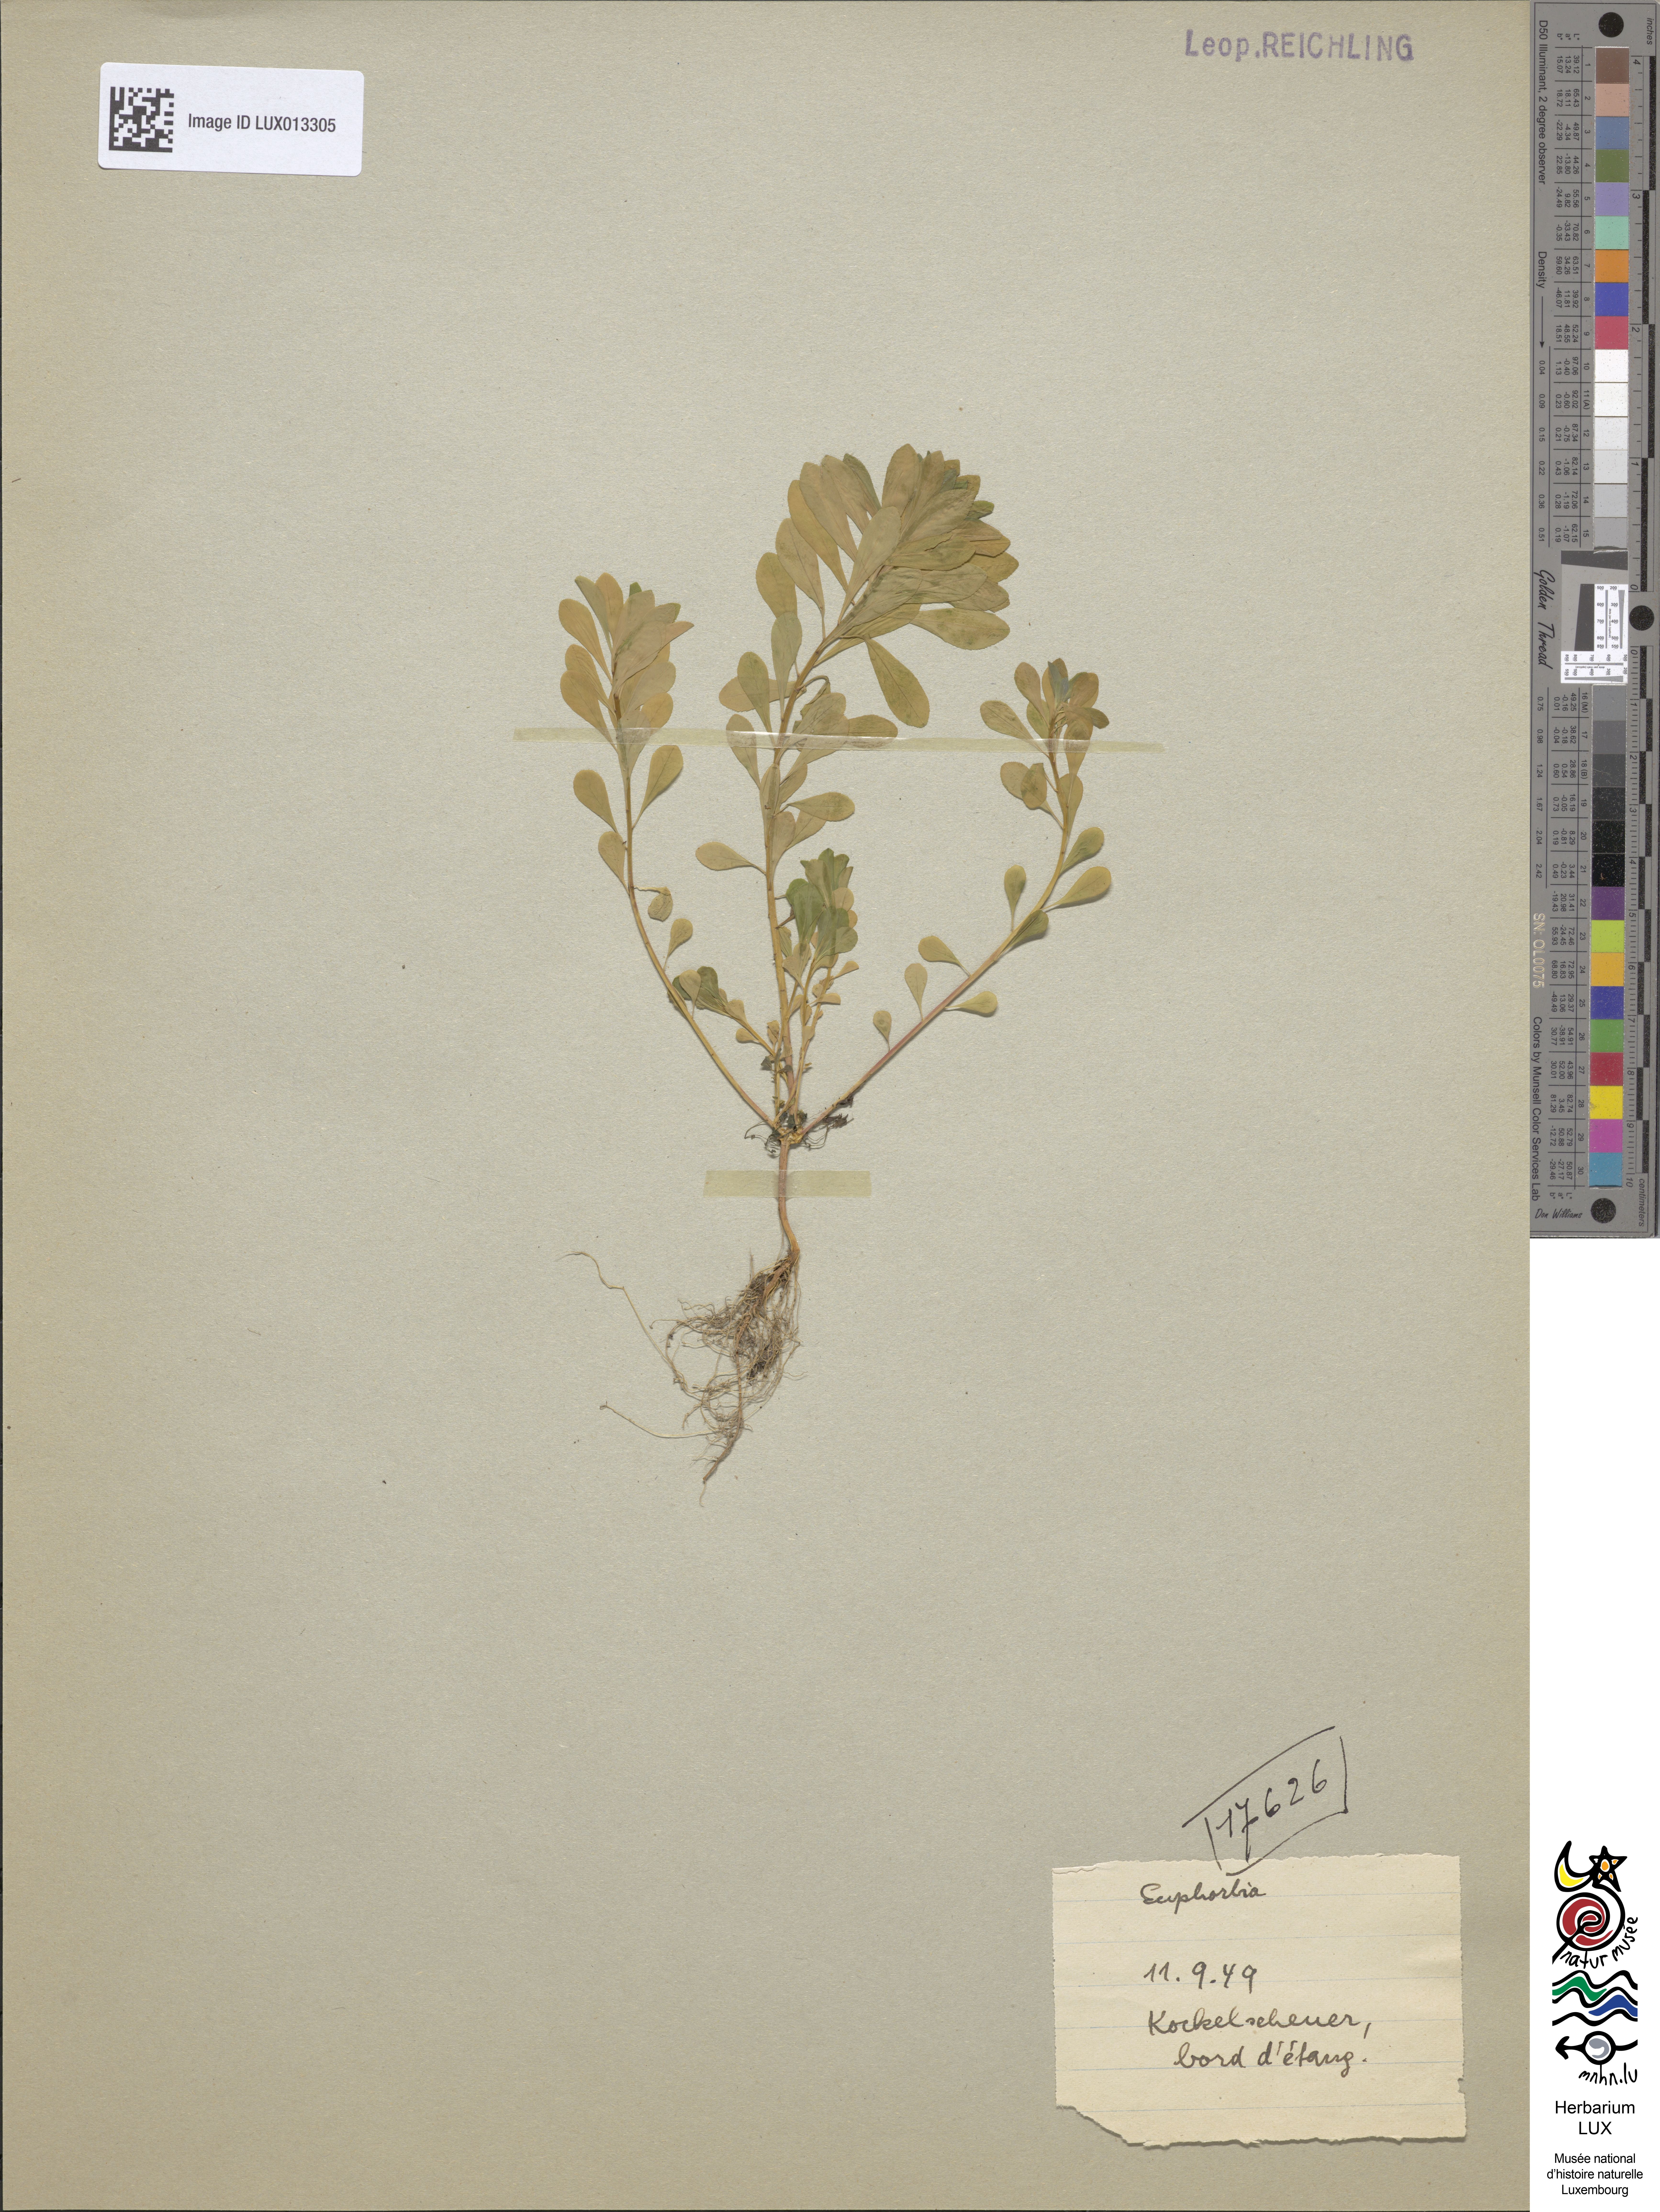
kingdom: Plantae
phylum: Tracheophyta
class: Magnoliopsida
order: Malpighiales
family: Euphorbiaceae
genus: Euphorbia
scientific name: Euphorbia
